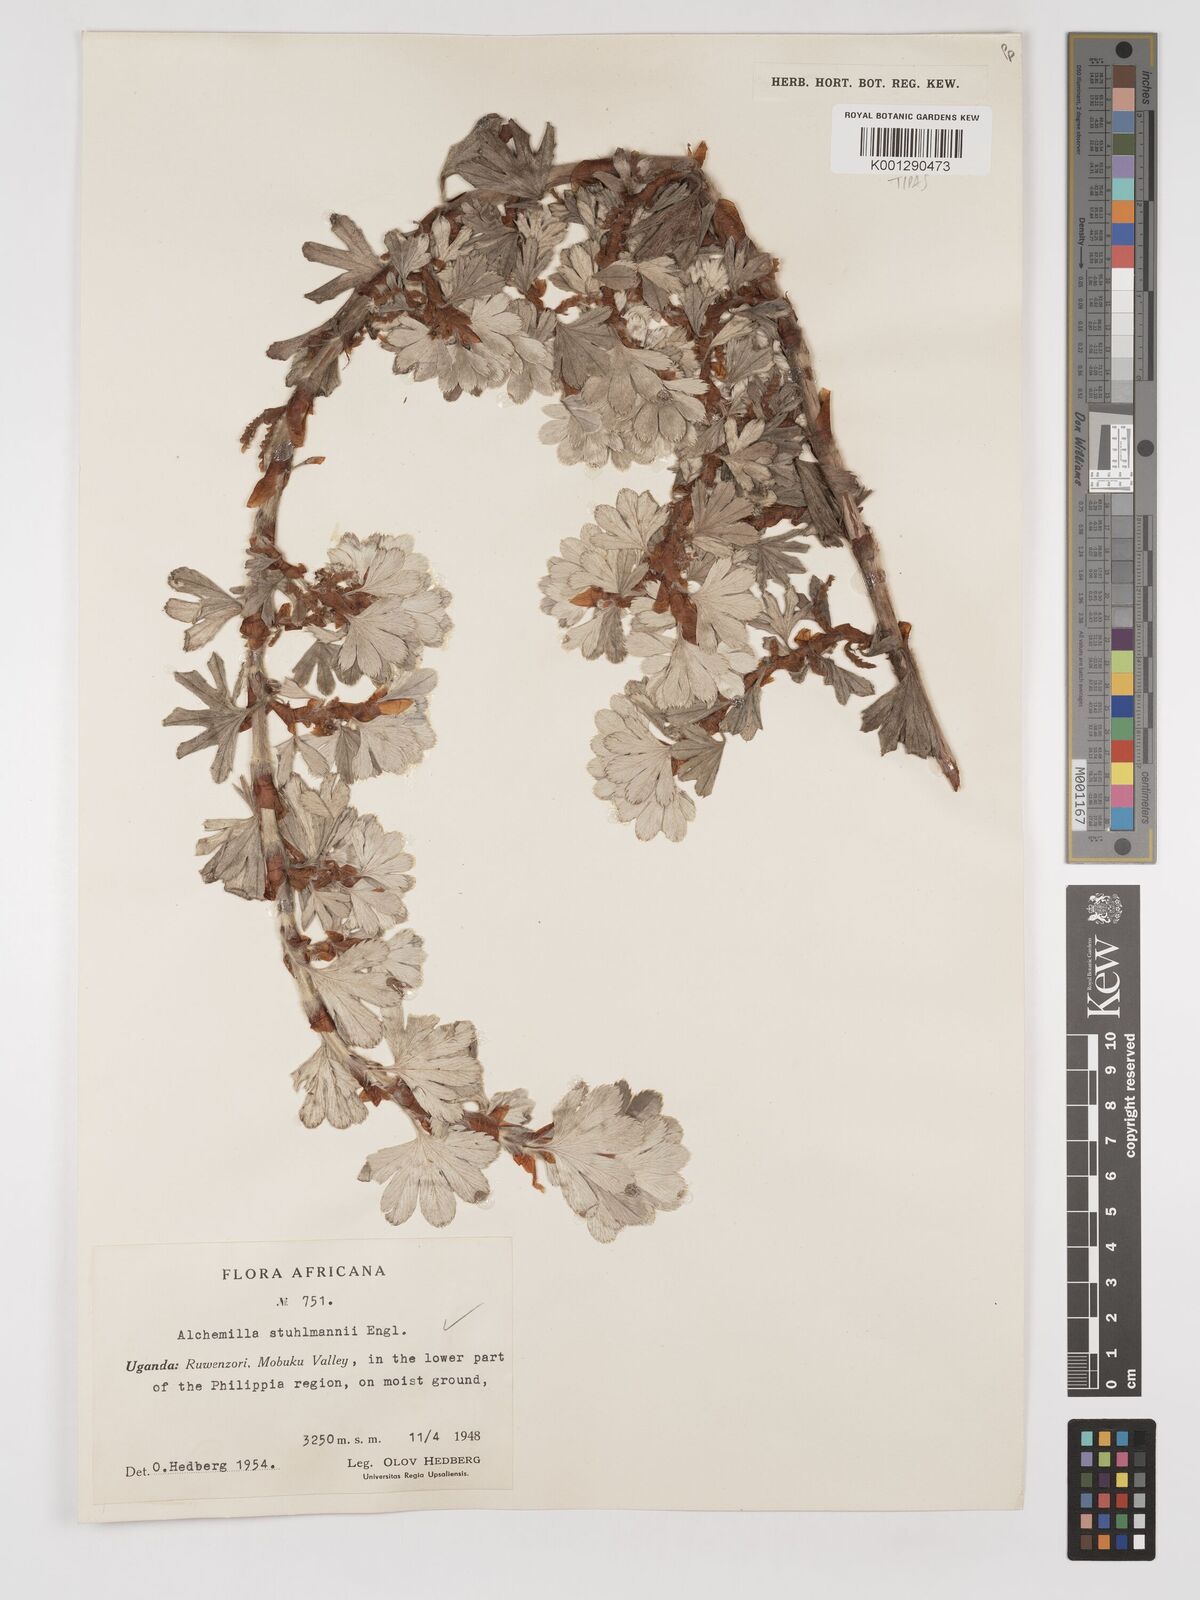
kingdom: Plantae
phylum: Tracheophyta
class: Magnoliopsida
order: Rosales
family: Rosaceae
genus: Alchemilla
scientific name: Alchemilla stuhlmannii
